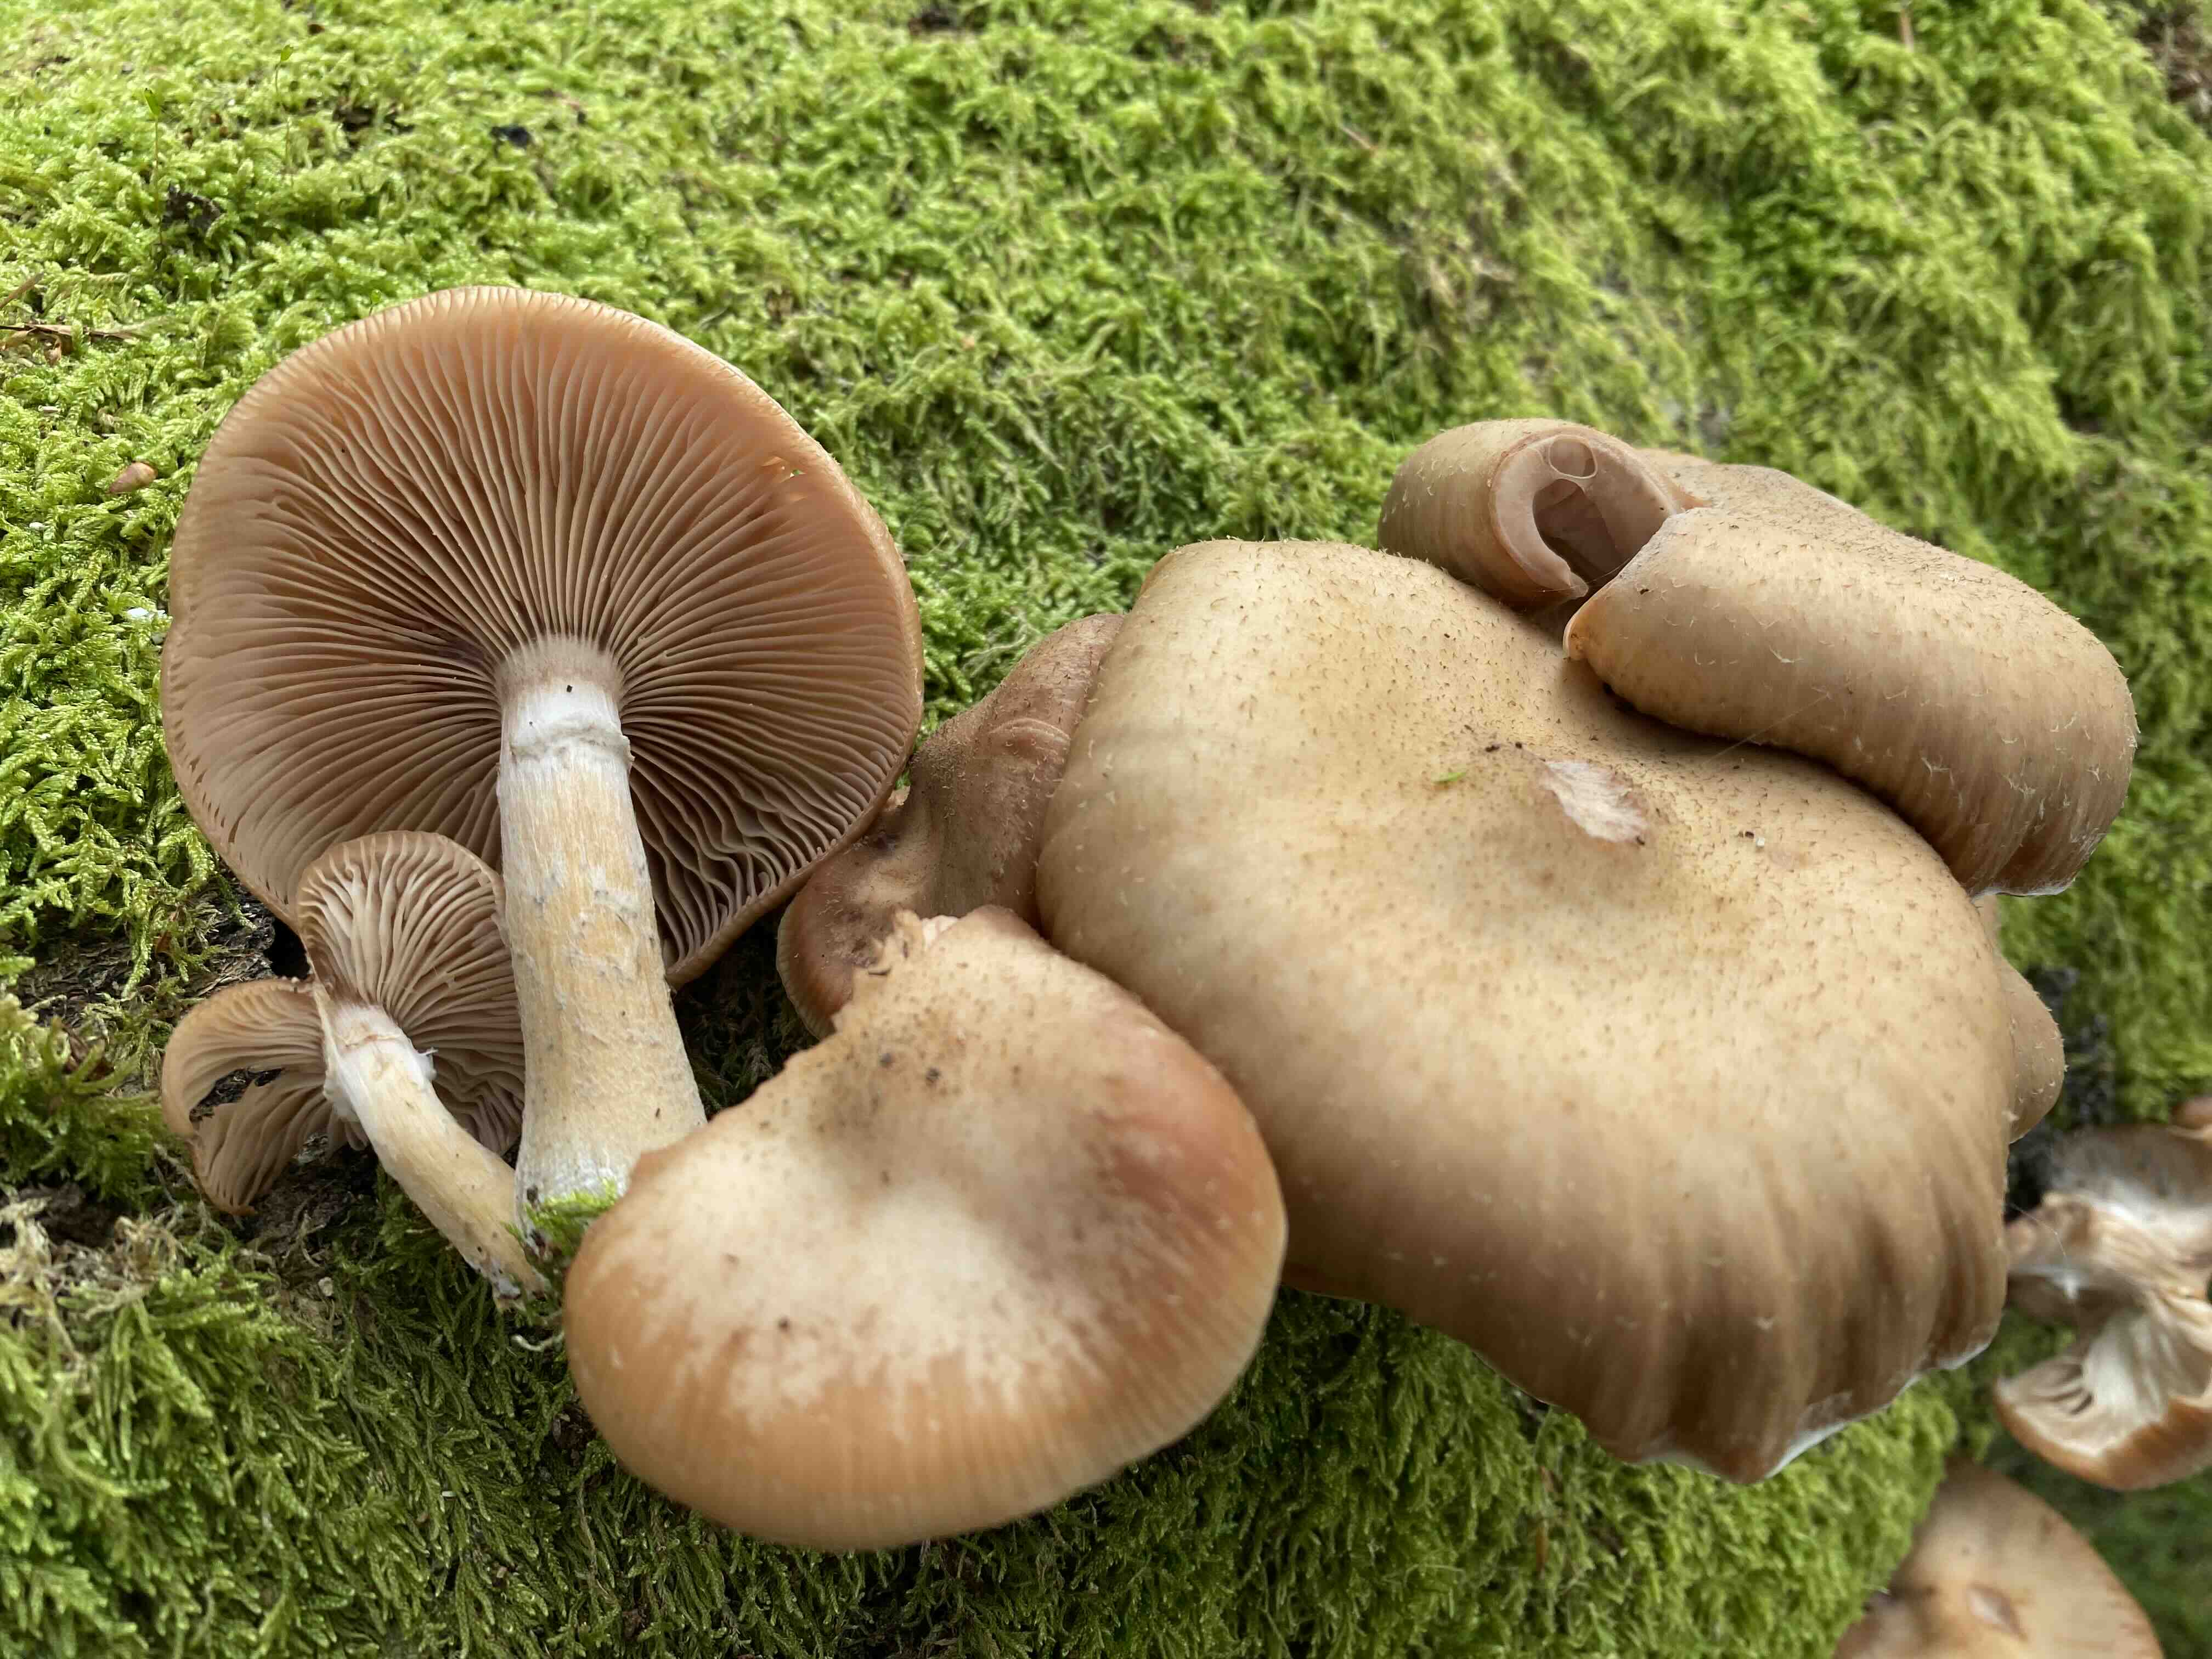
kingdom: Fungi
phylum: Basidiomycota
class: Agaricomycetes
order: Agaricales
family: Physalacriaceae
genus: Armillaria
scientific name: Armillaria
